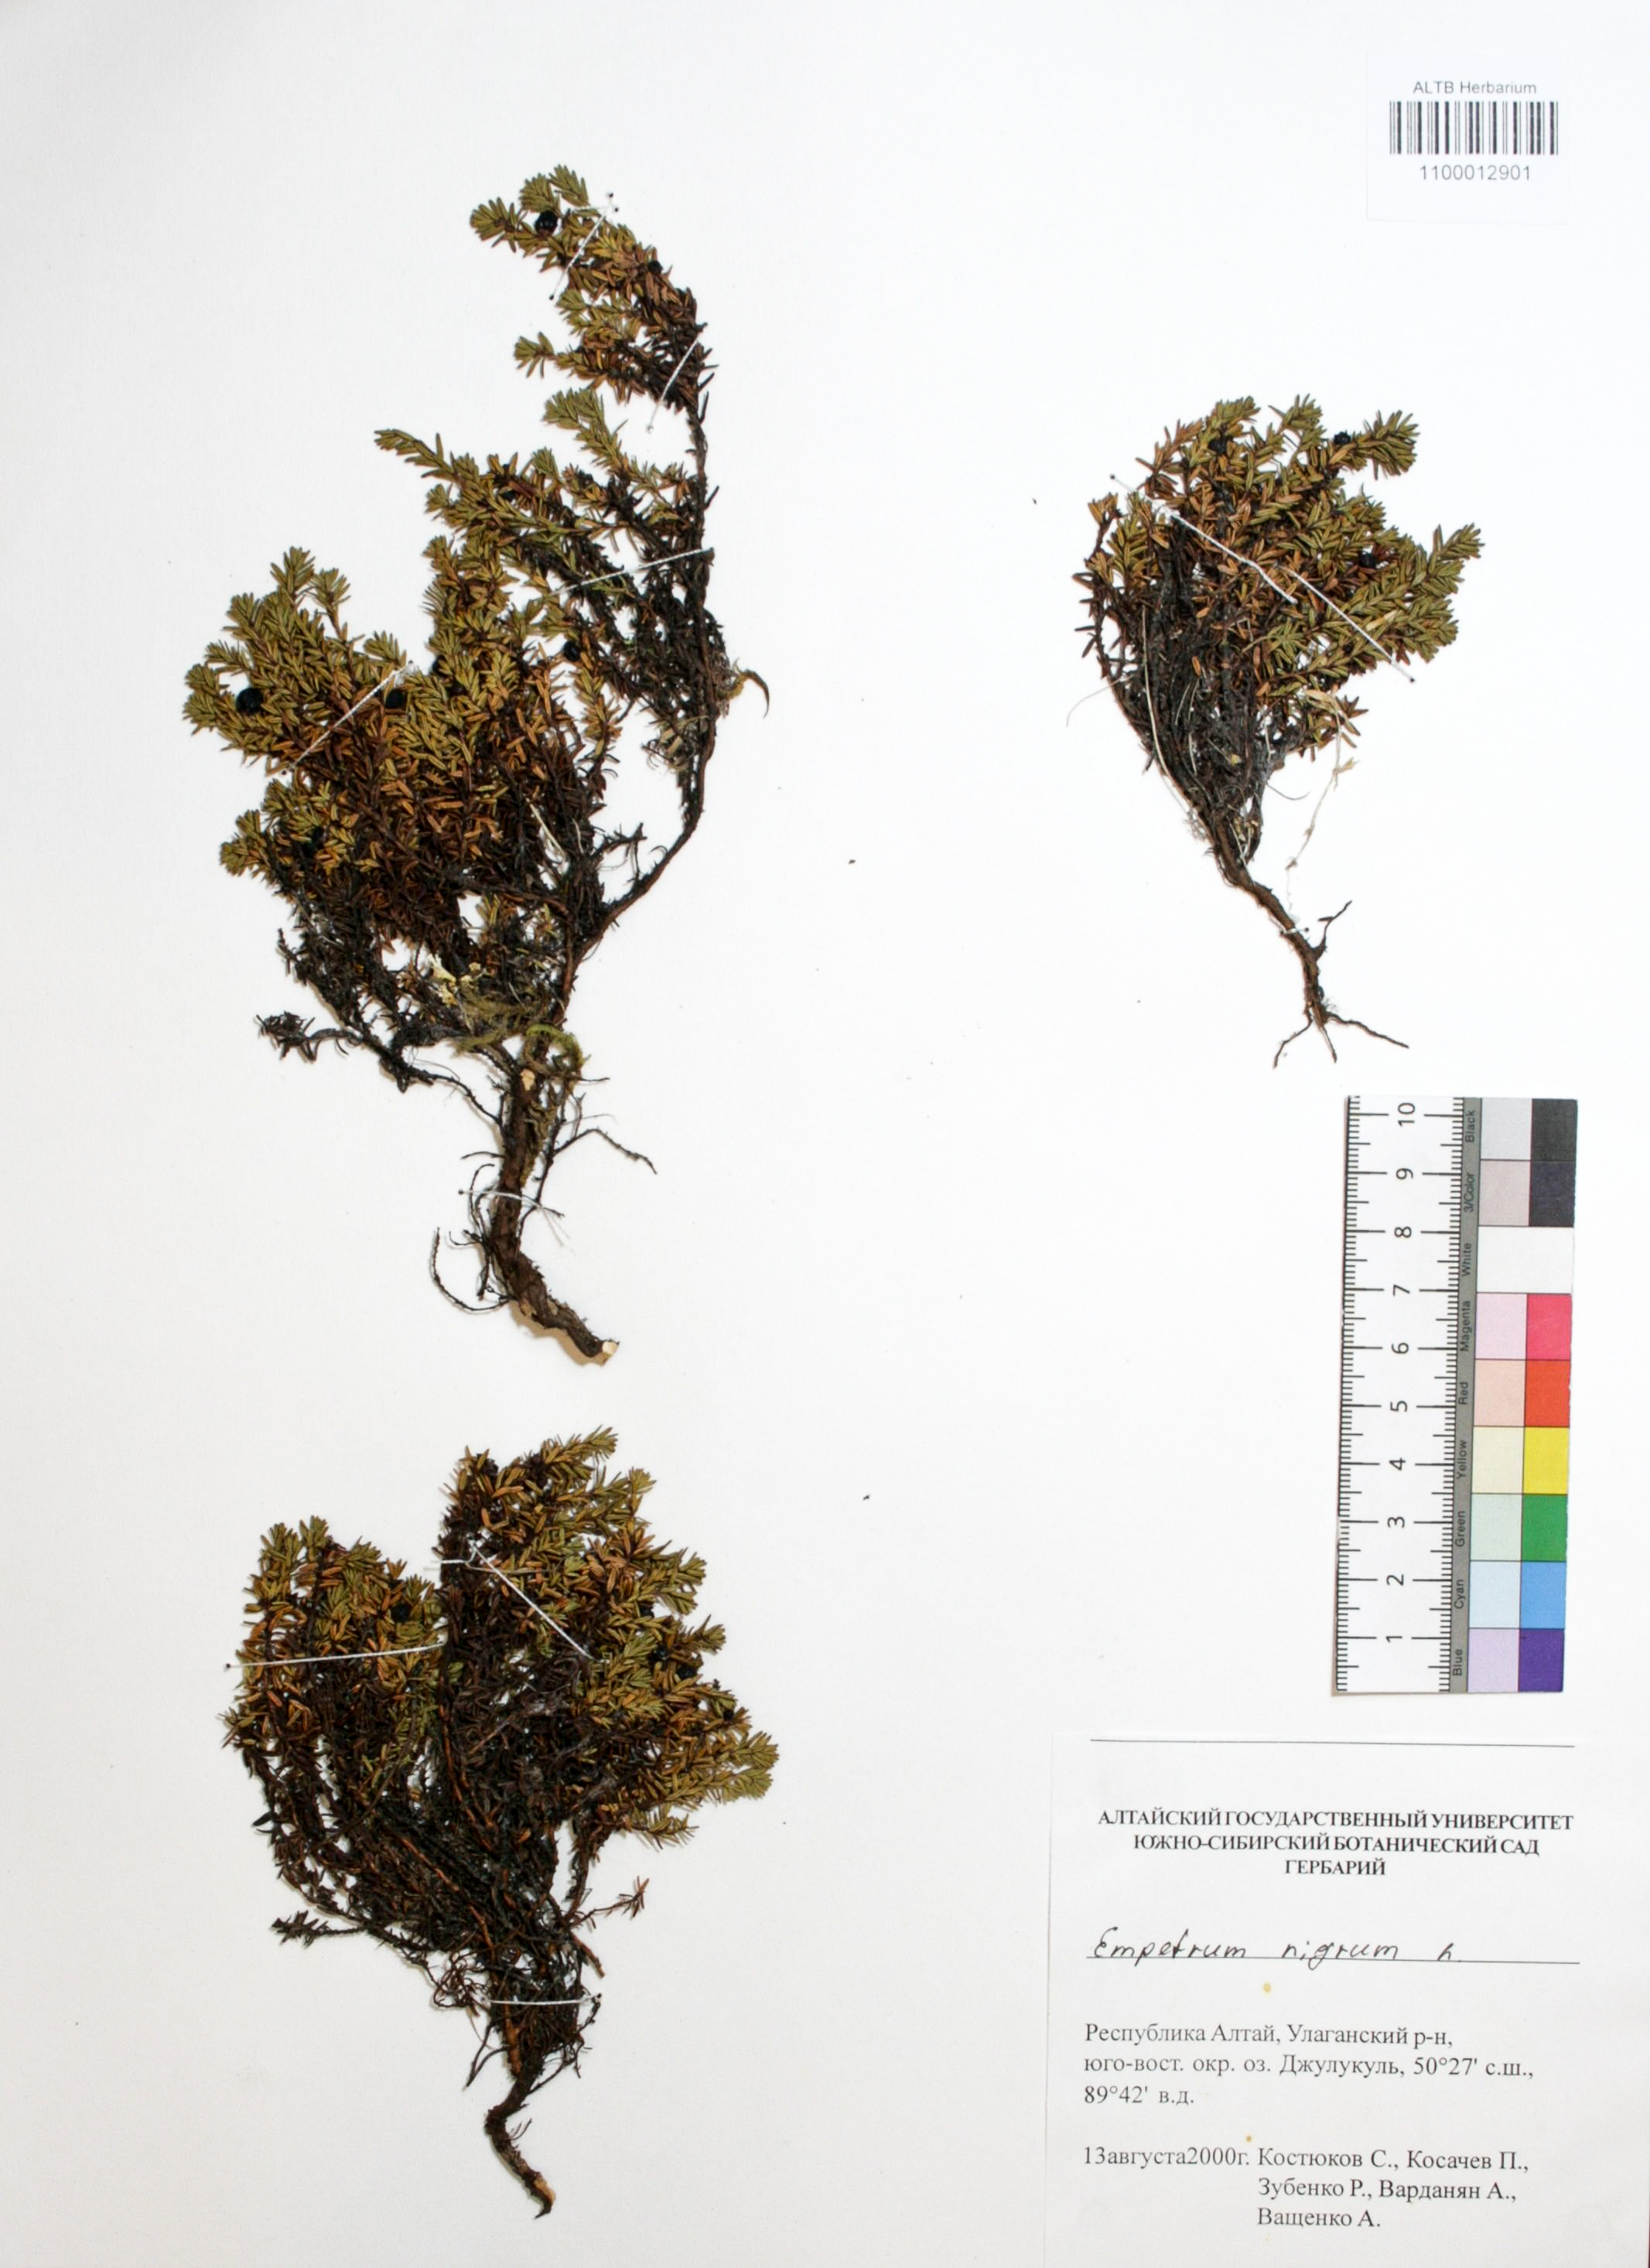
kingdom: Plantae
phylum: Tracheophyta
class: Magnoliopsida
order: Ericales
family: Ericaceae
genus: Empetrum
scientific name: Empetrum nigrum
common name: Black crowberry
